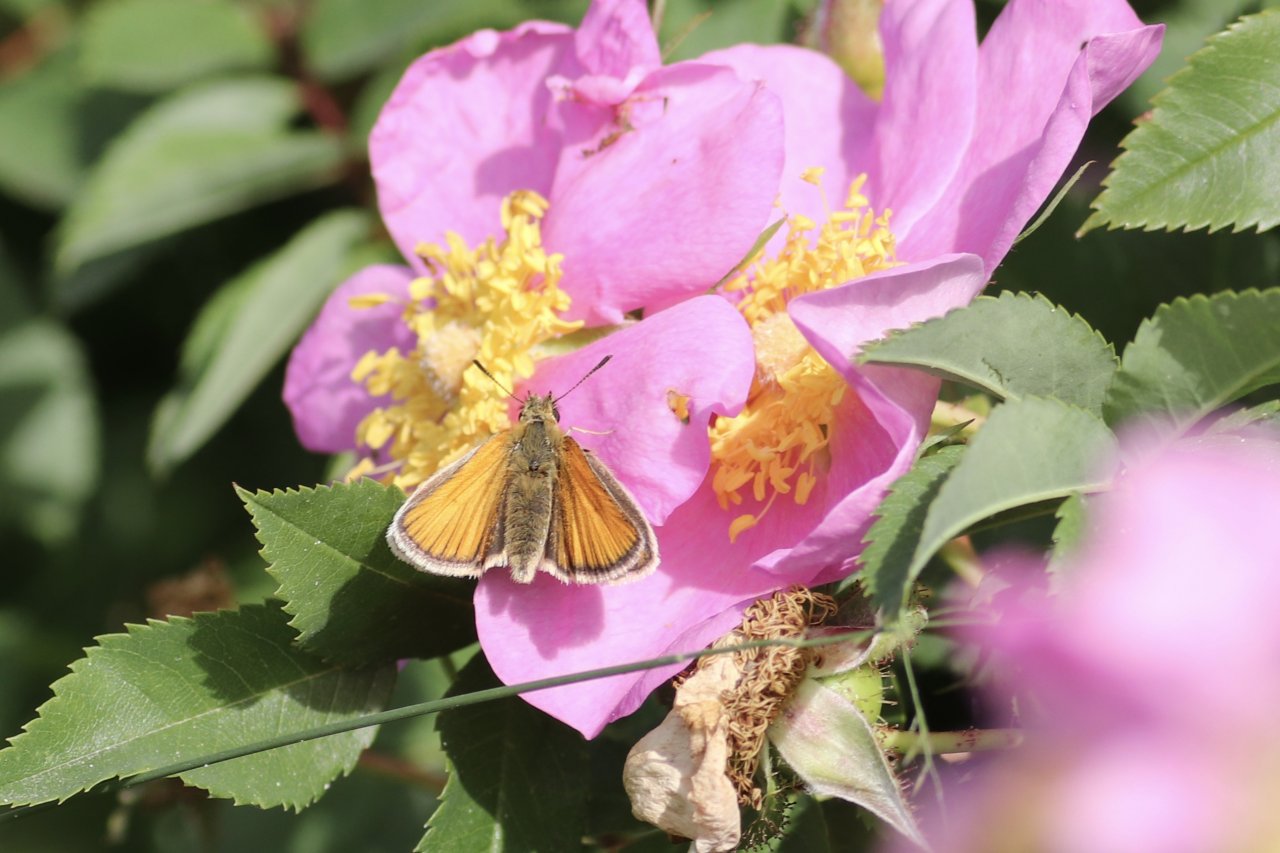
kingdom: Animalia
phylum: Arthropoda
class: Insecta
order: Lepidoptera
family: Hesperiidae
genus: Thymelicus
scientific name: Thymelicus lineola
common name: European Skipper
